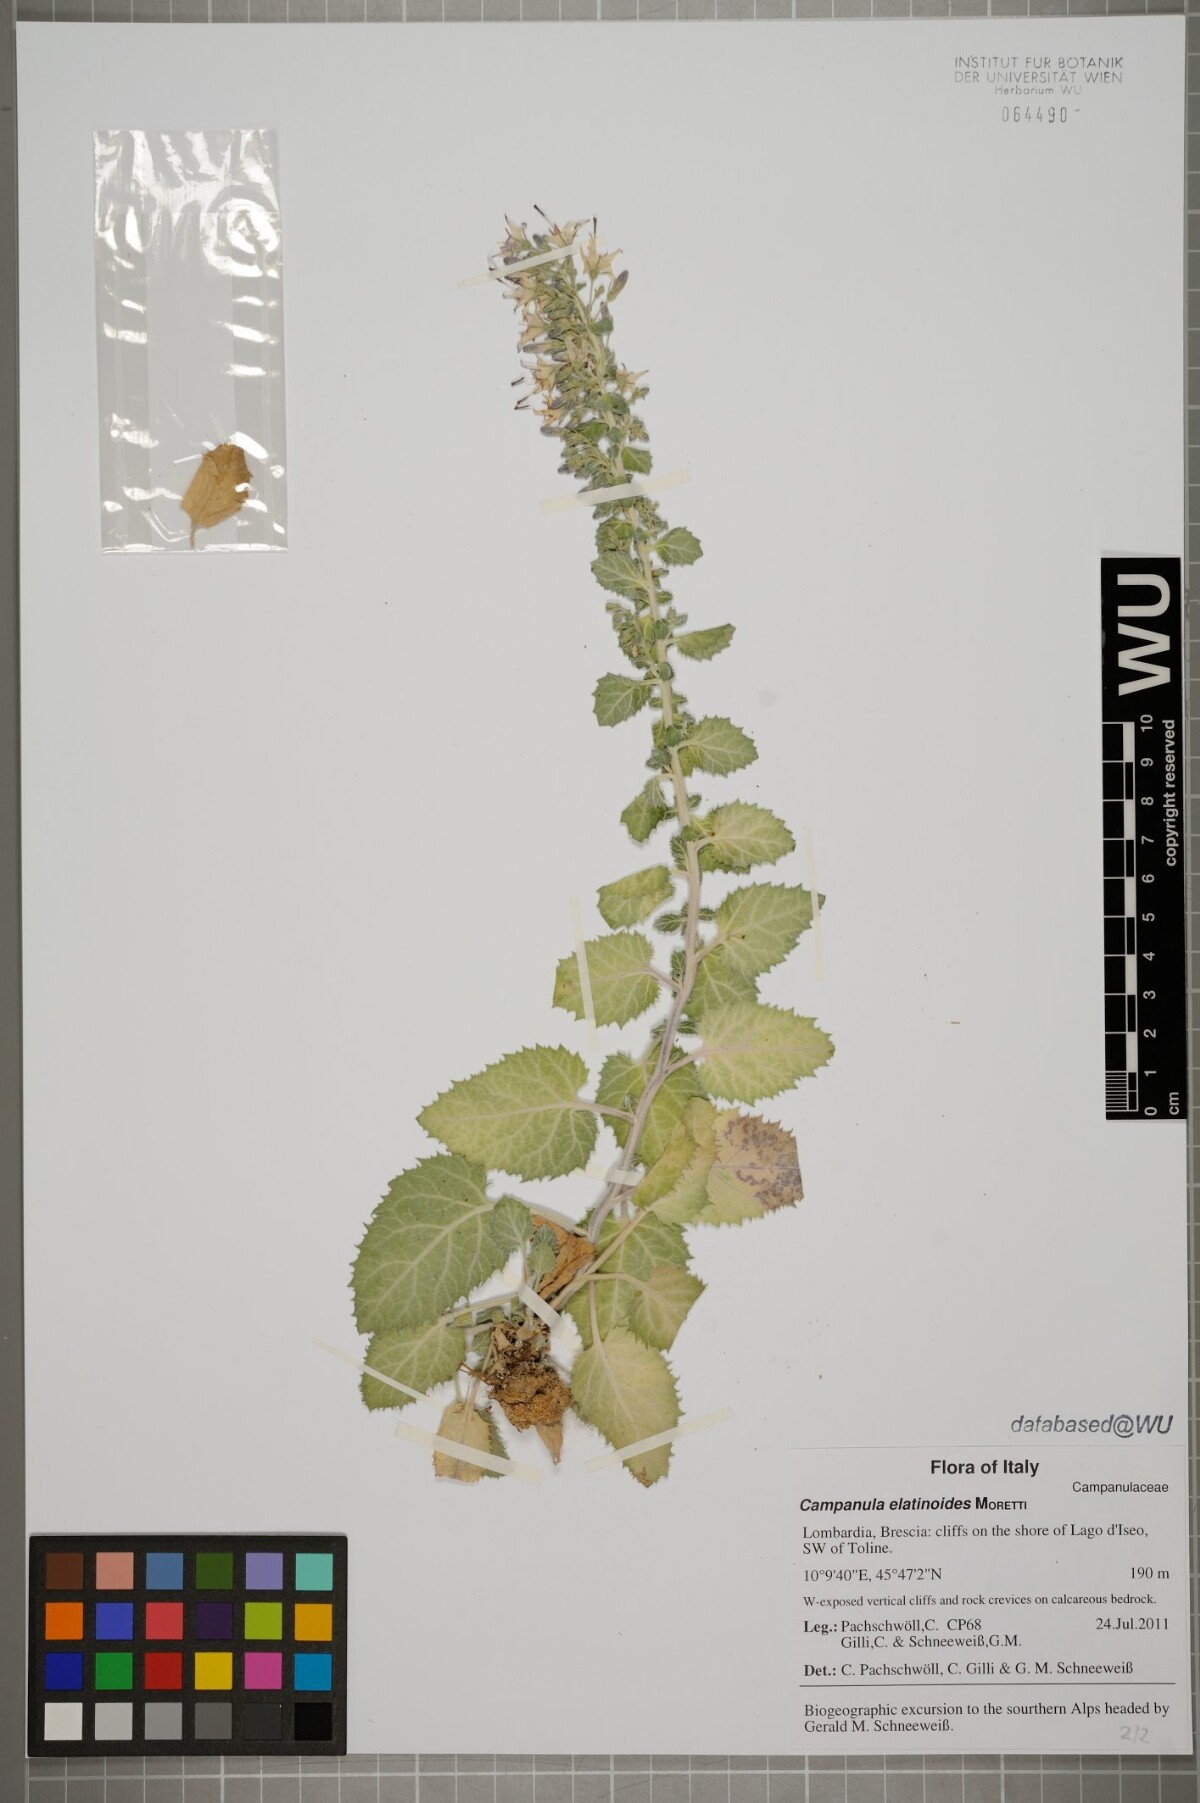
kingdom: Plantae
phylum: Tracheophyta
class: Magnoliopsida
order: Asterales
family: Campanulaceae
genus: Campanula
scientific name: Campanula elatinoides
